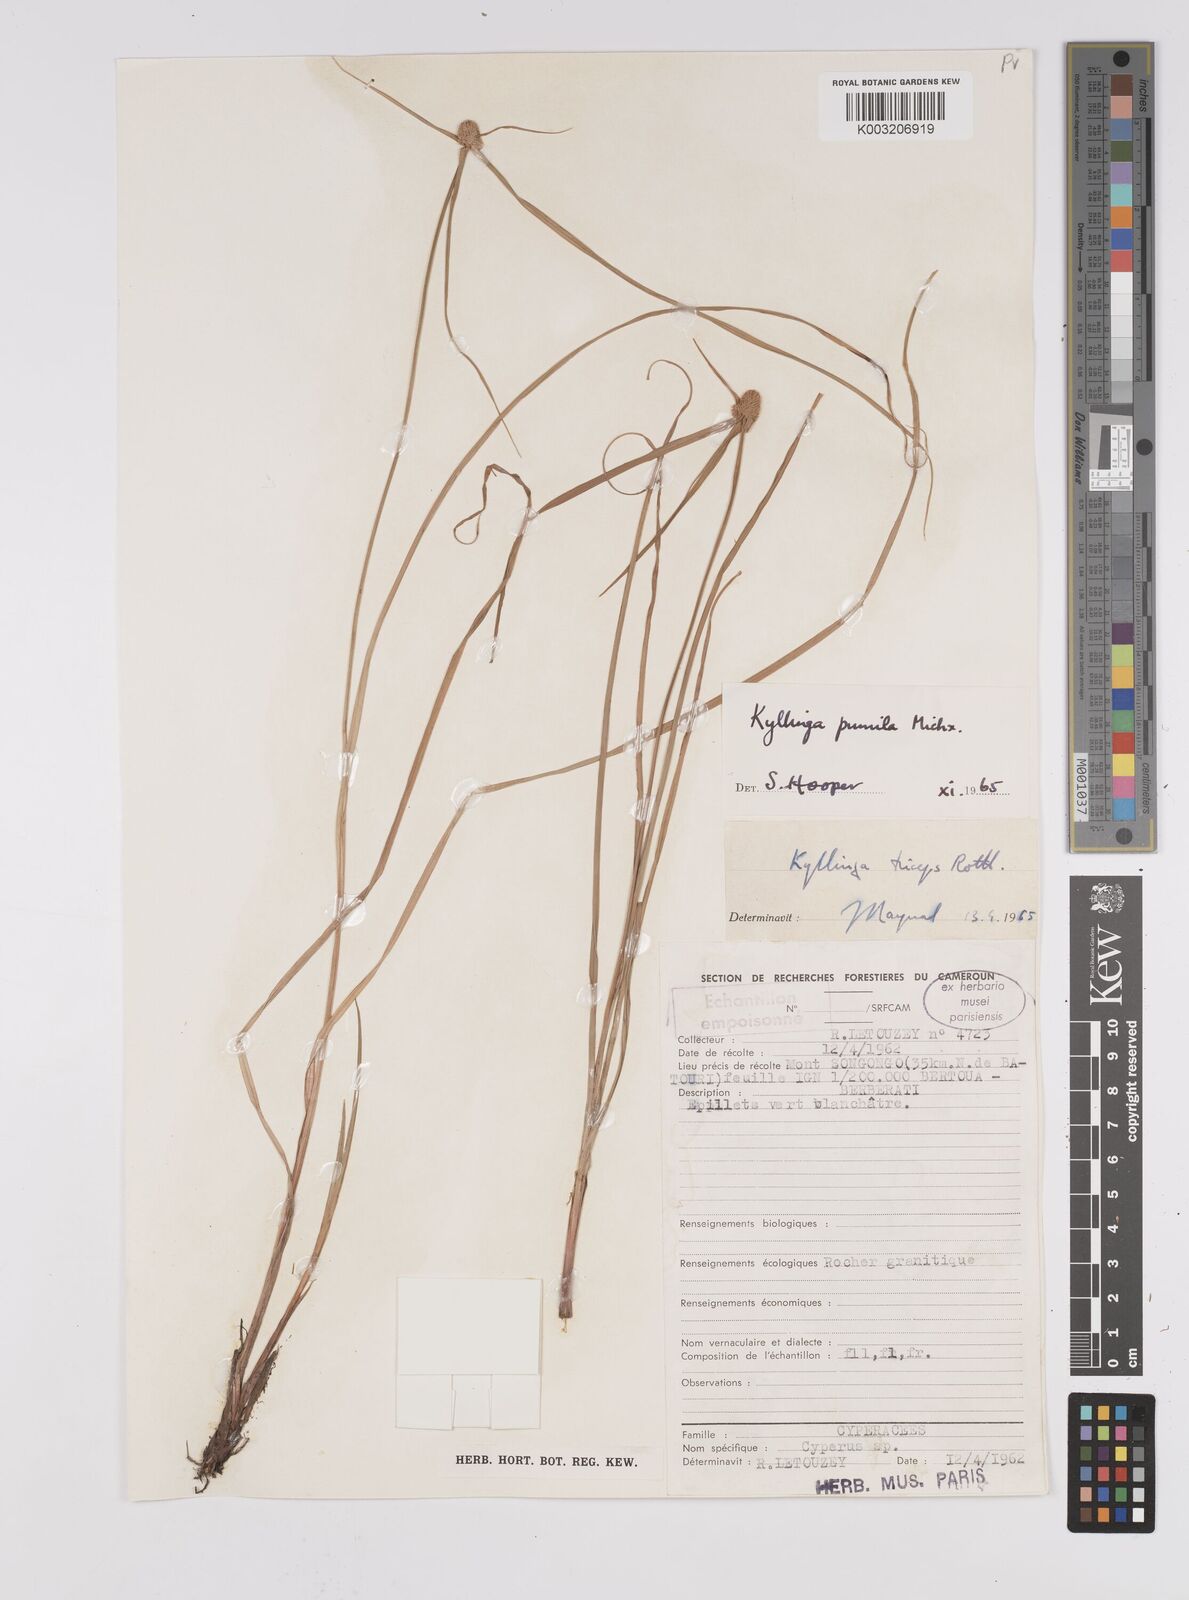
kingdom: Plantae
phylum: Tracheophyta
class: Liliopsida
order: Poales
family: Cyperaceae
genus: Cyperus
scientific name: Cyperus hortensis
